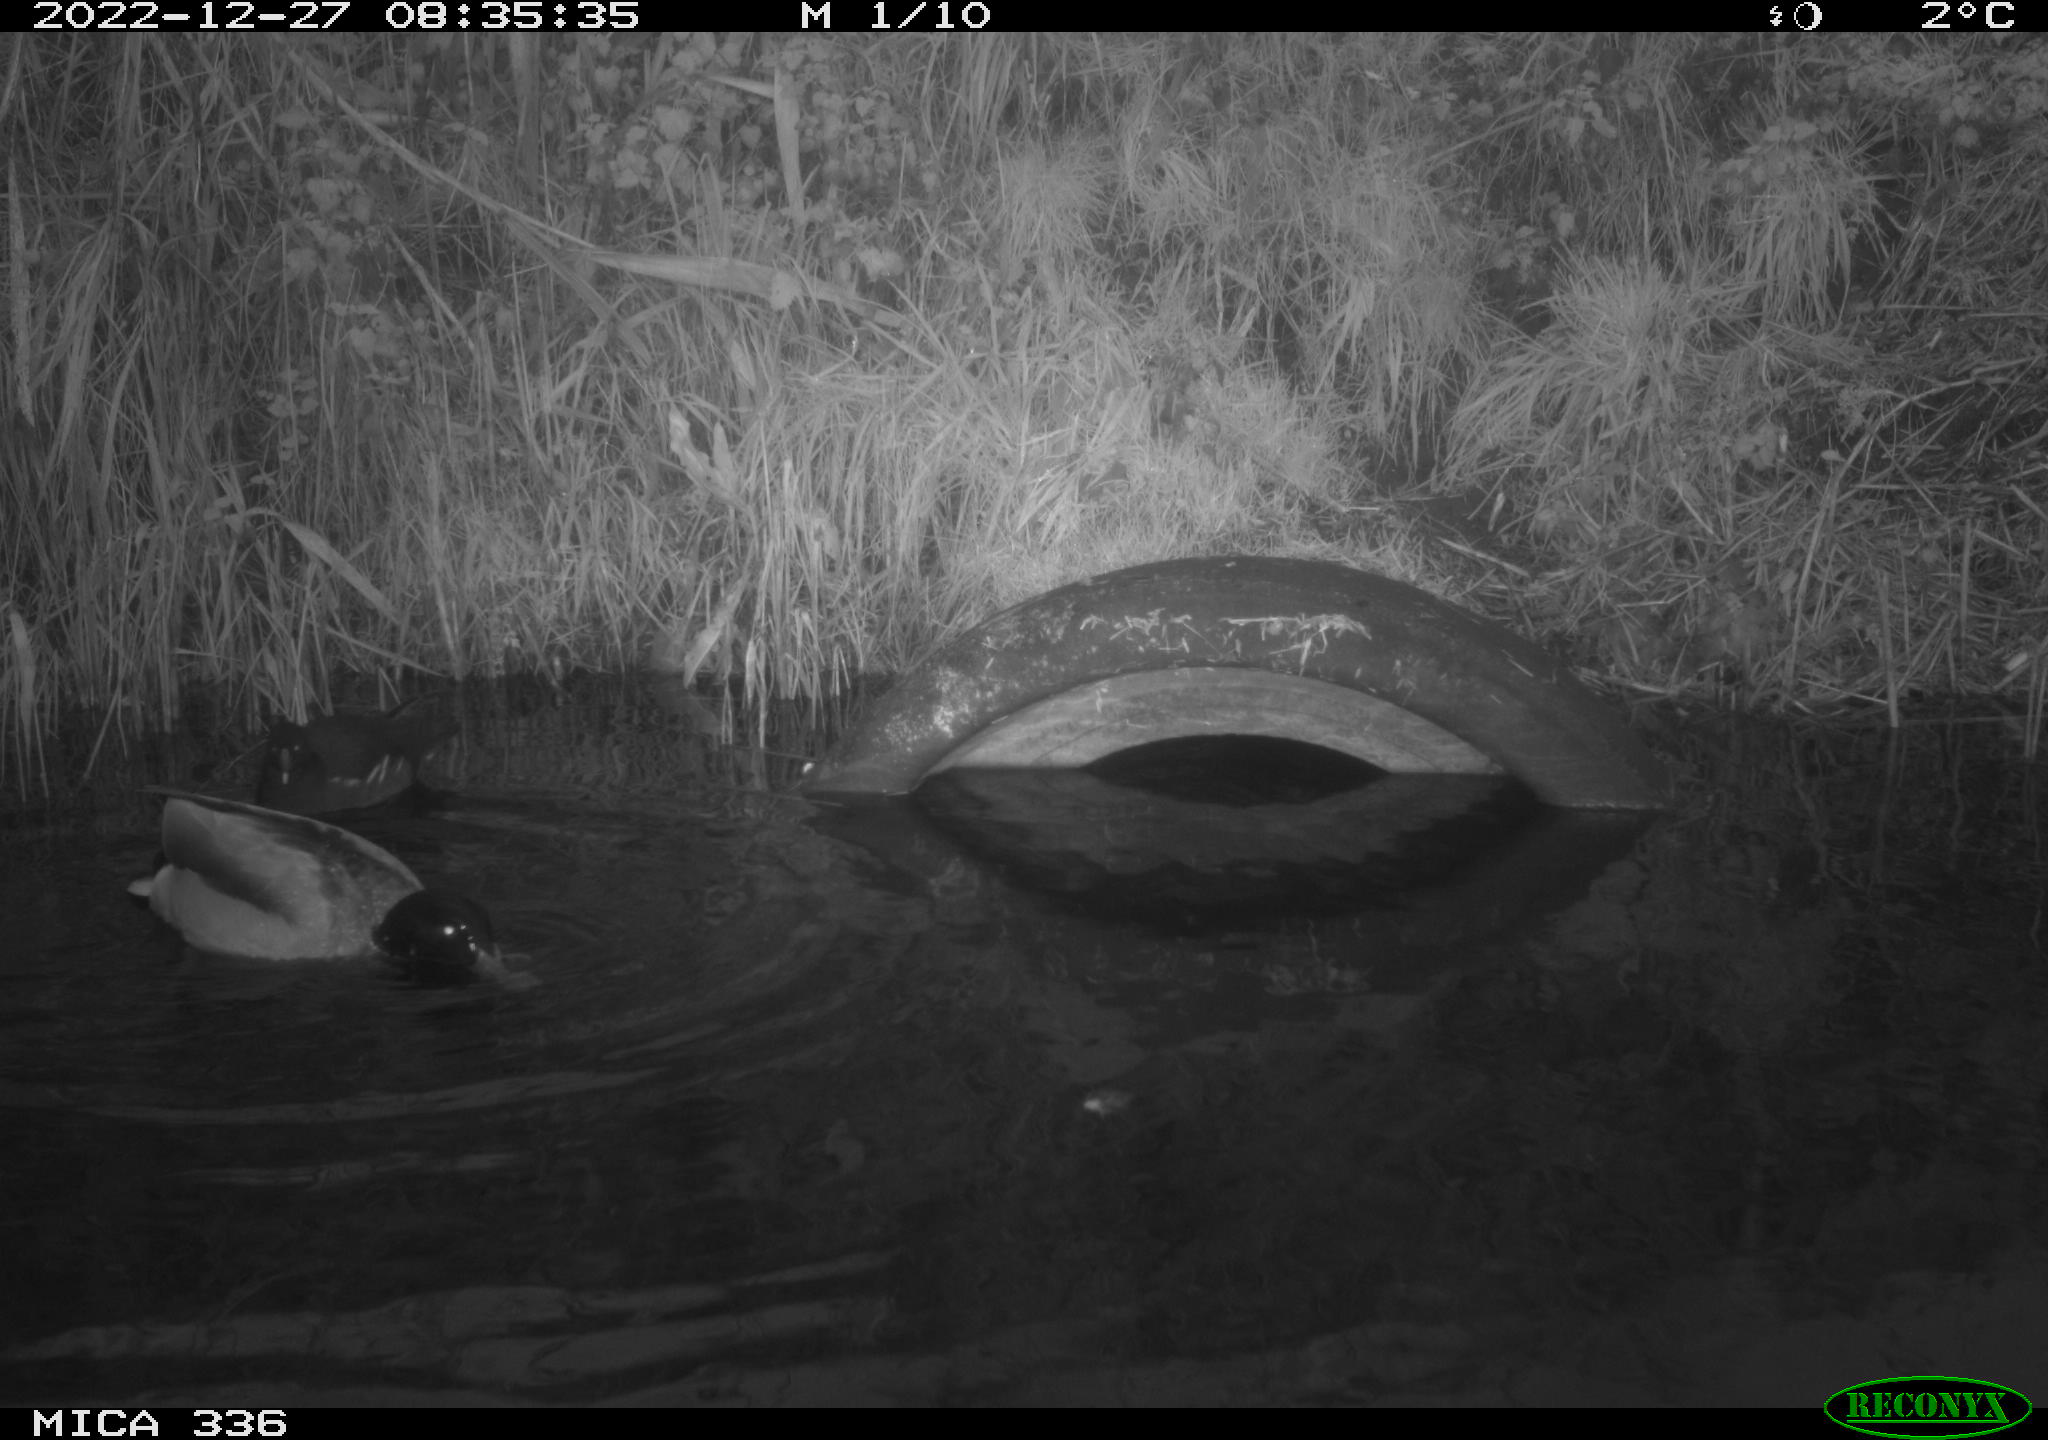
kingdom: Animalia
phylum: Chordata
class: Aves
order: Gruiformes
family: Rallidae
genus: Gallinula
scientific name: Gallinula chloropus
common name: Common moorhen
